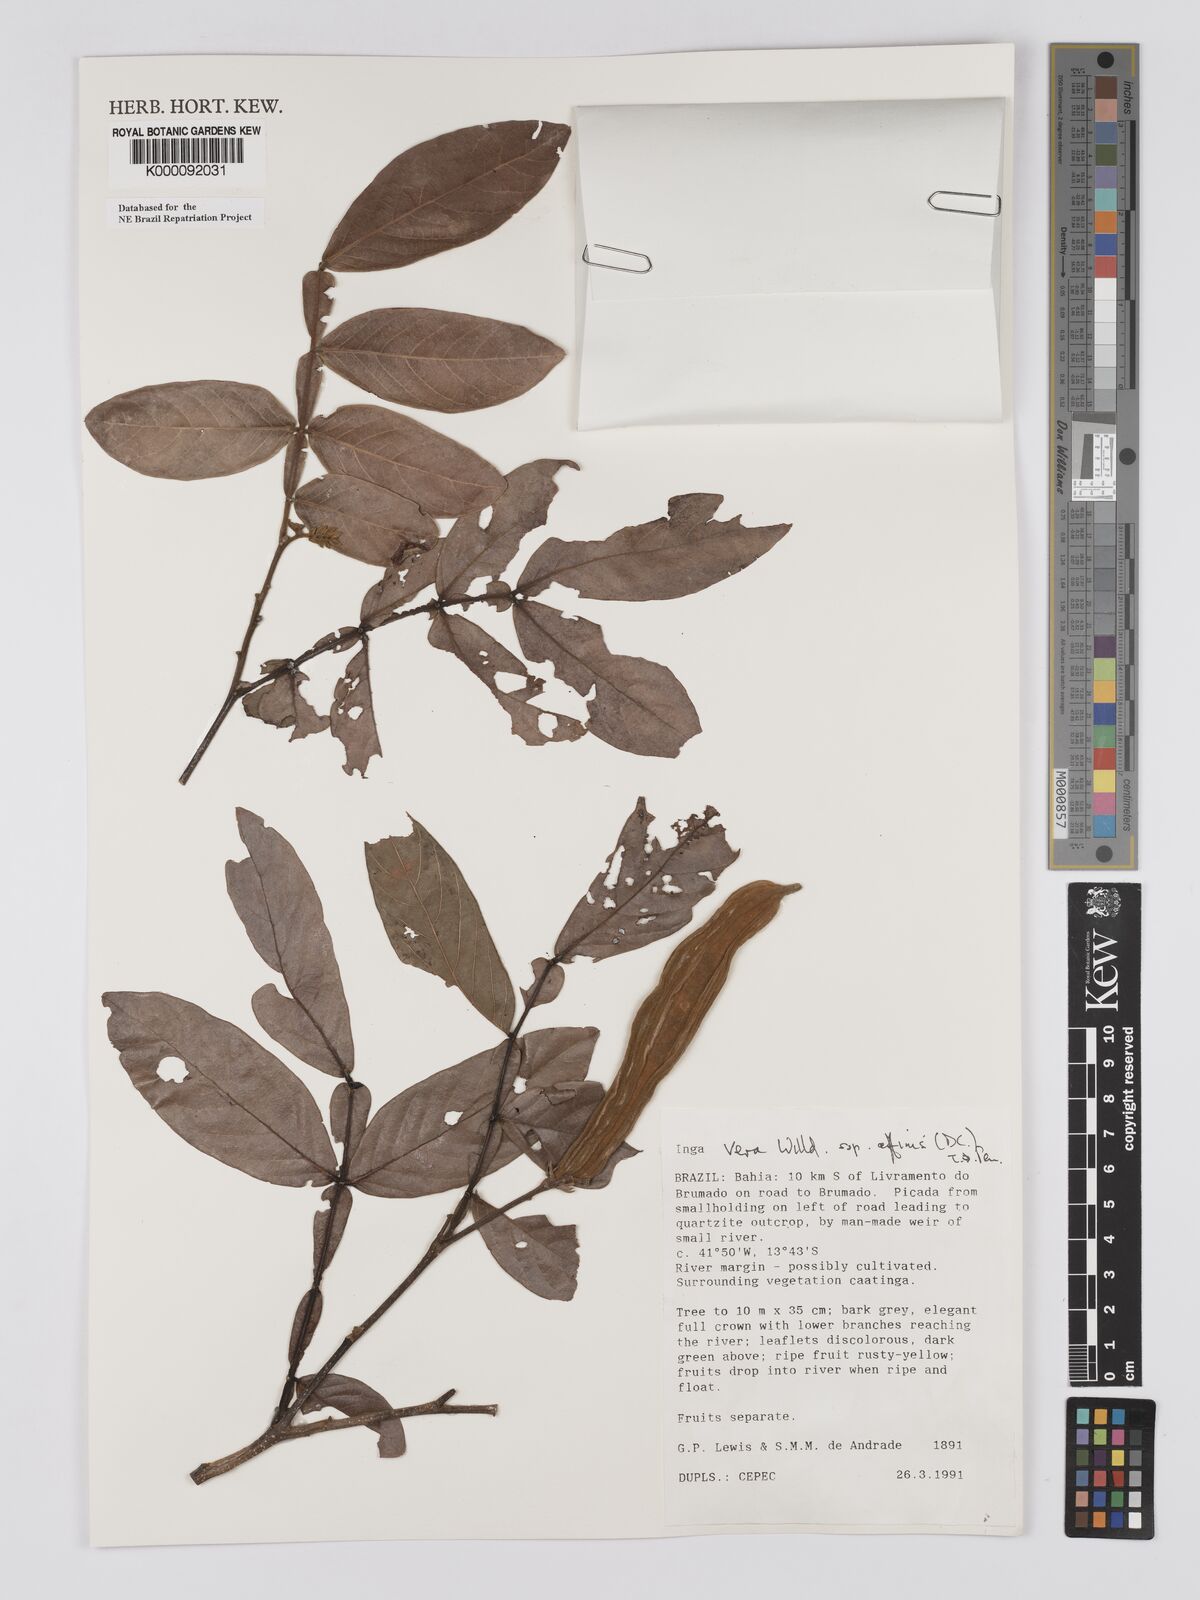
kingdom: Plantae
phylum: Tracheophyta
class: Magnoliopsida
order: Fabales
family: Fabaceae
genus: Inga
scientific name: Inga affinis
